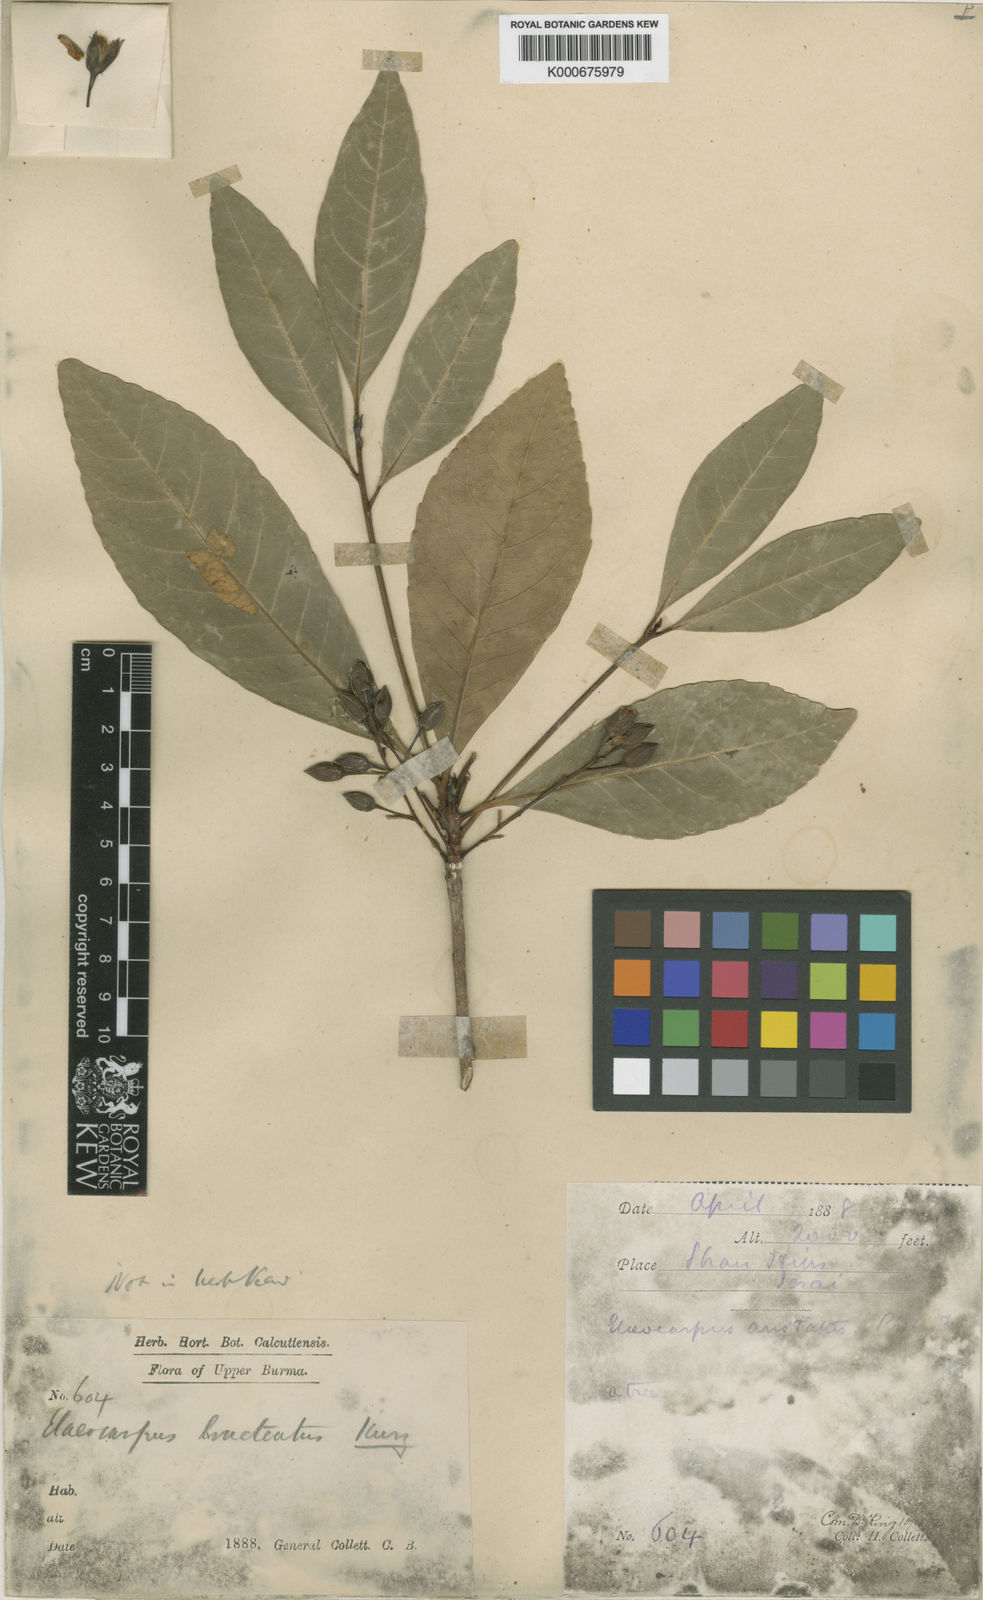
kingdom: Plantae
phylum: Tracheophyta
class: Magnoliopsida
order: Oxalidales
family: Elaeocarpaceae
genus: Elaeocarpus
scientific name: Elaeocarpus bracteatus
